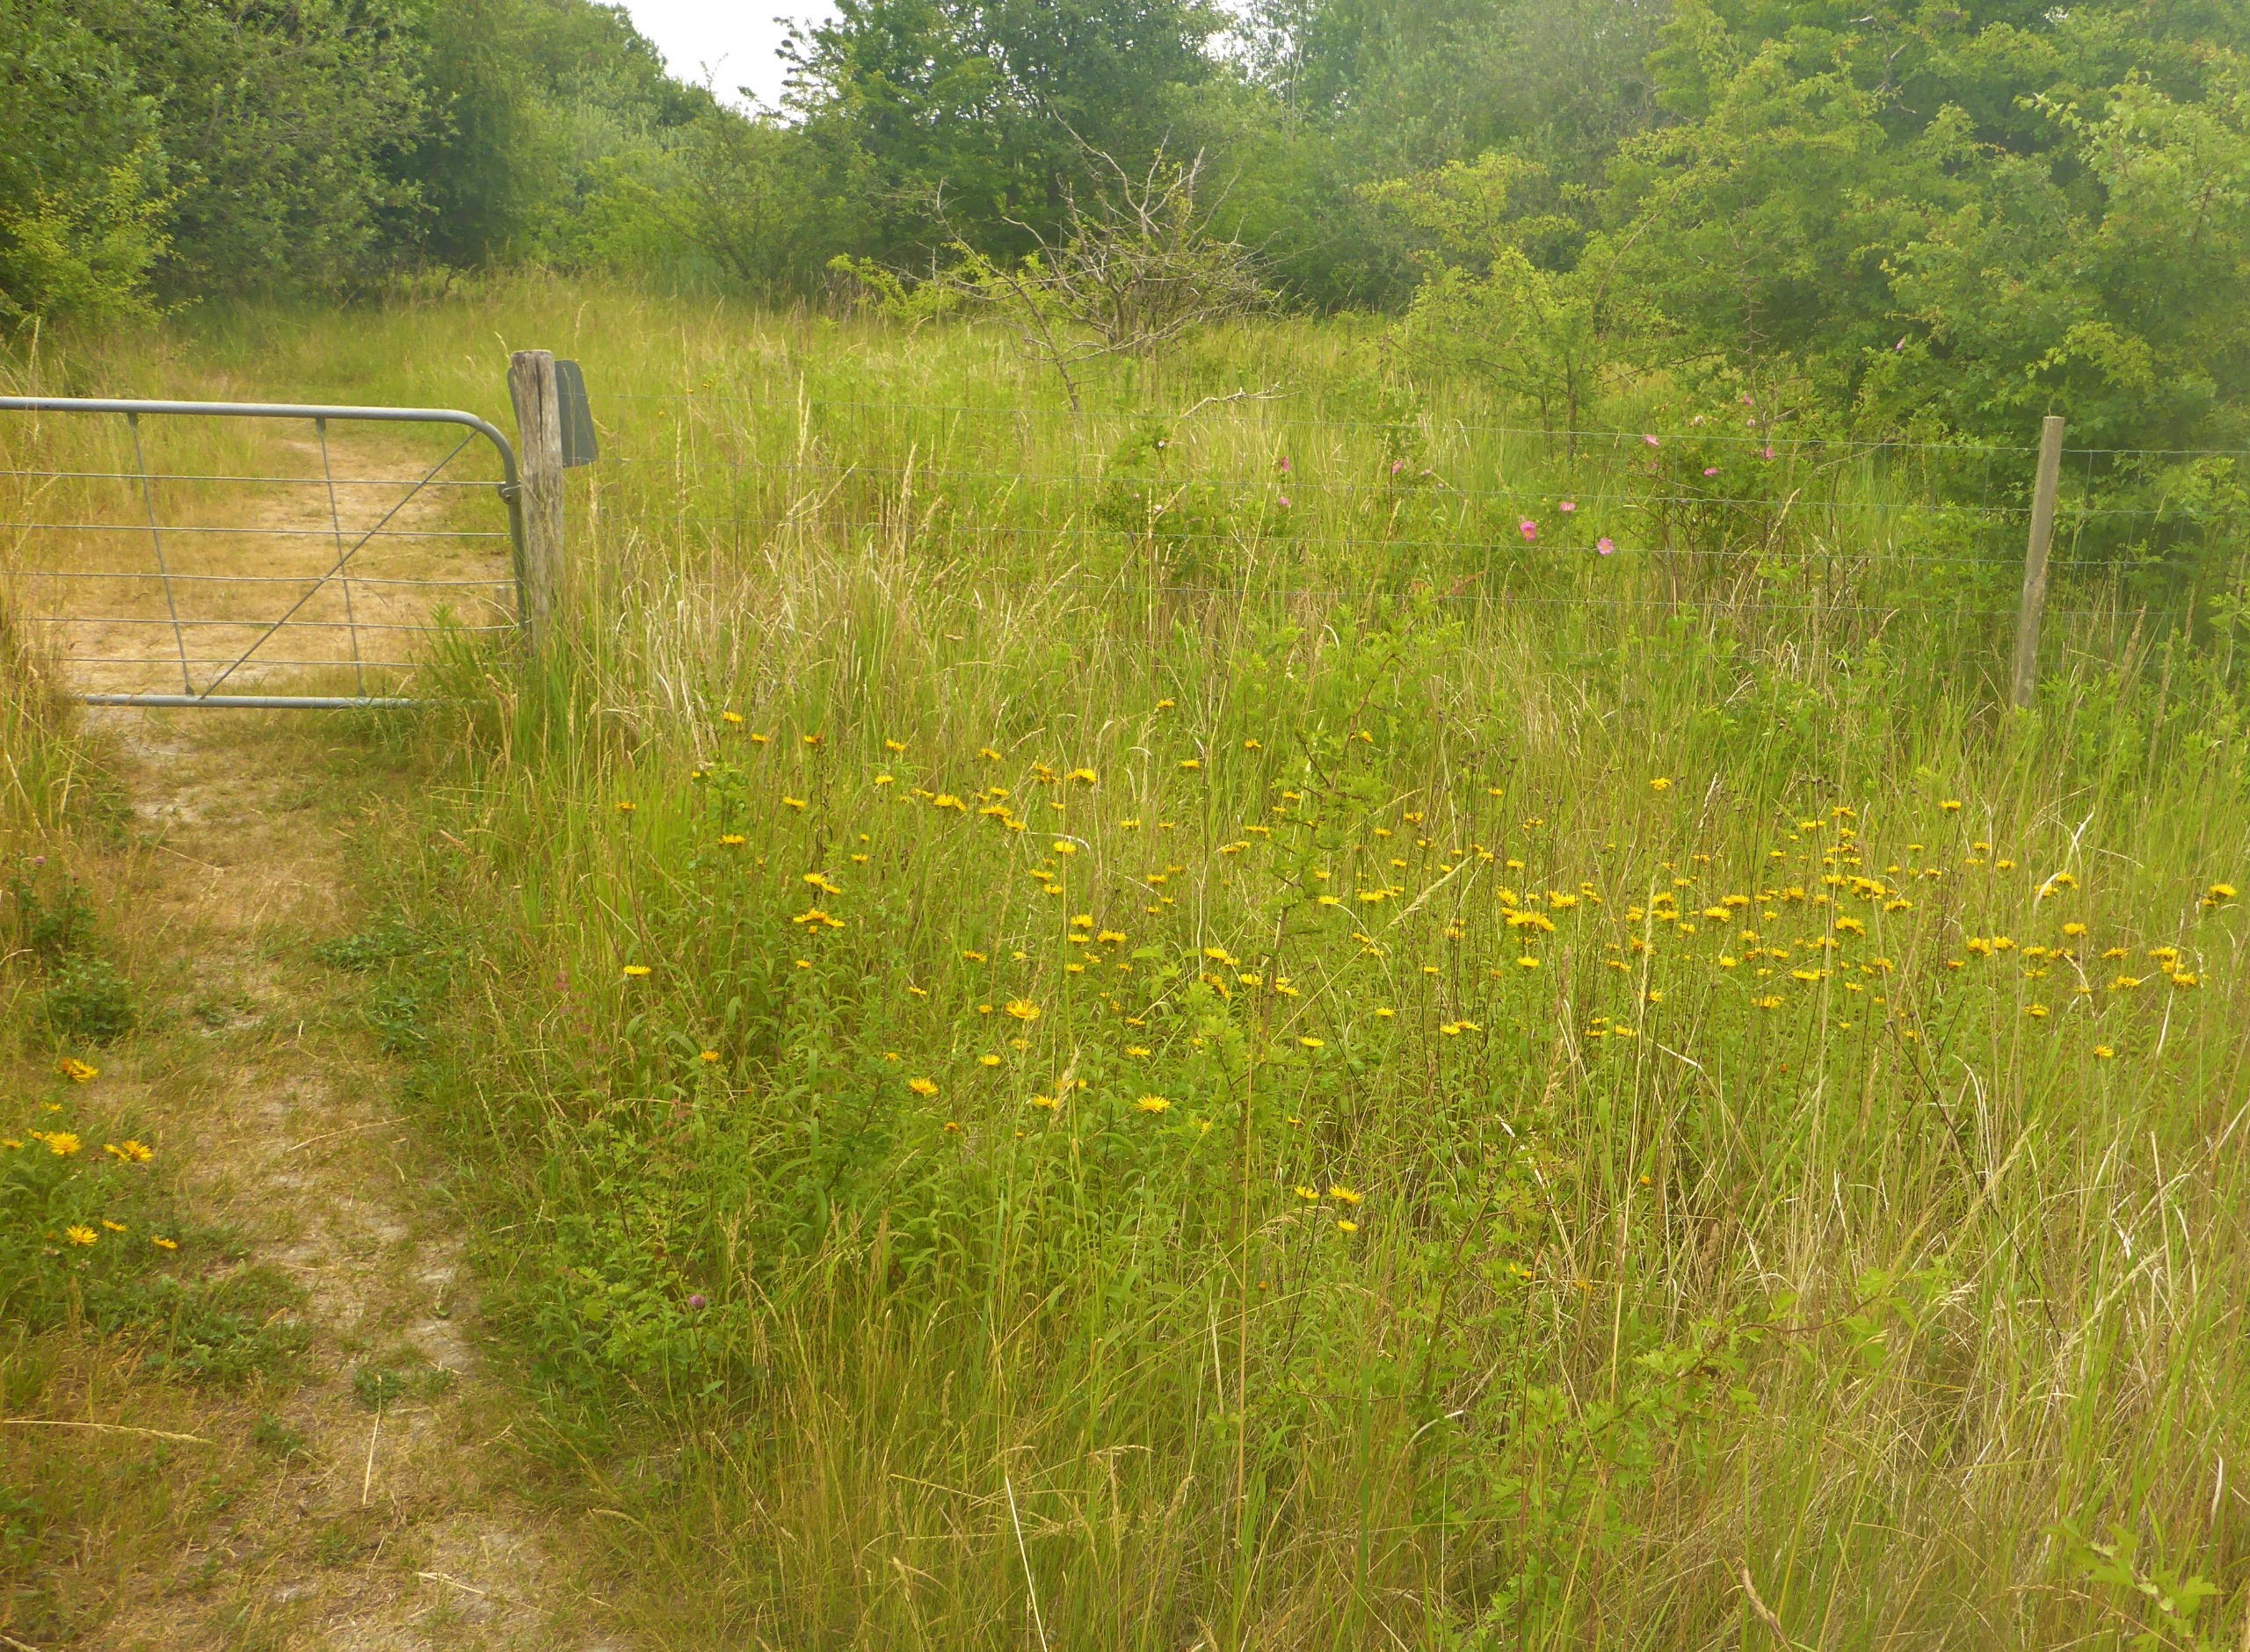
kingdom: Plantae
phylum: Tracheophyta
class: Magnoliopsida
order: Asterales
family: Asteraceae
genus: Pentanema
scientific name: Pentanema salicinum
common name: Pile-alant
